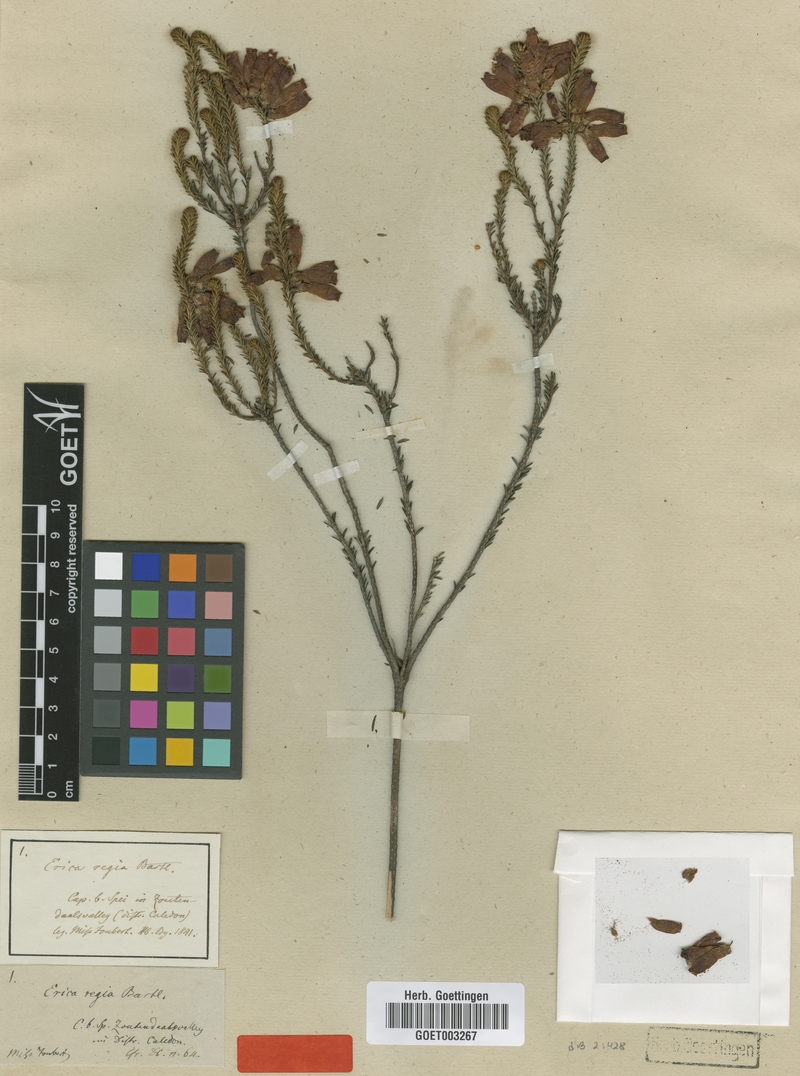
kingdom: Plantae
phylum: Tracheophyta
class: Magnoliopsida
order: Ericales
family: Ericaceae
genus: Erica
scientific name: Erica regia
